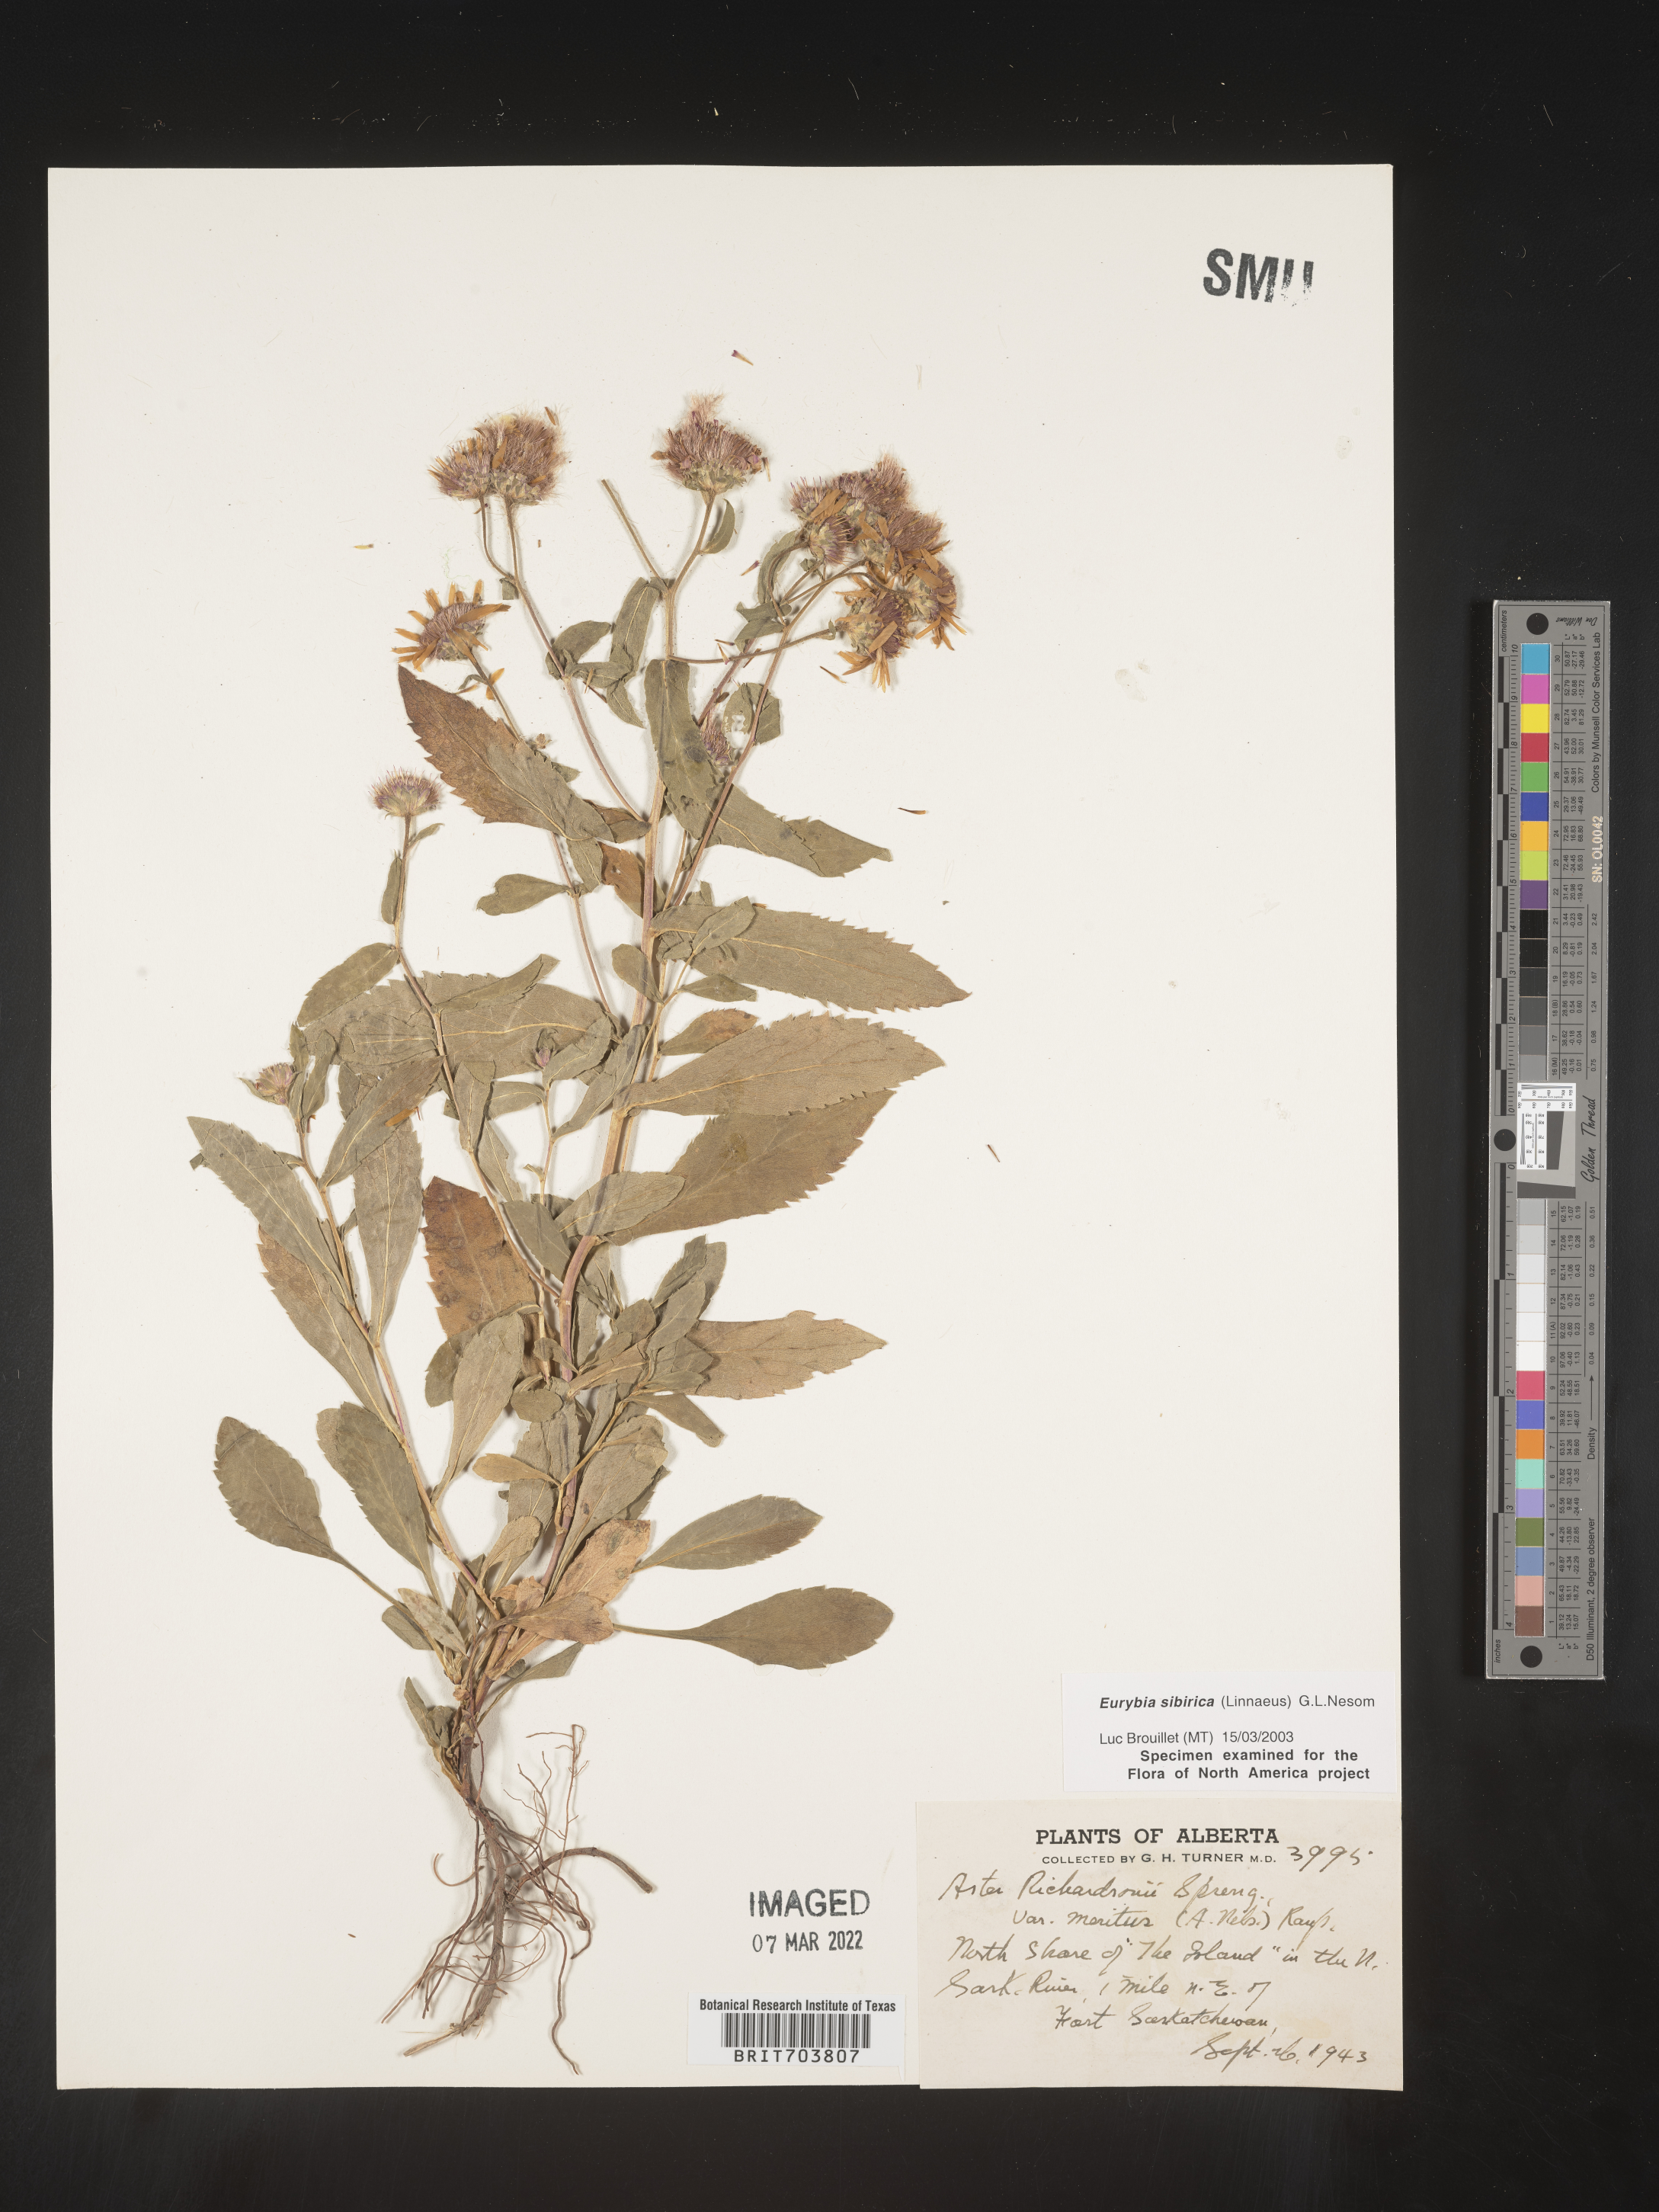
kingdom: Plantae
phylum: Tracheophyta
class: Magnoliopsida
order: Asterales
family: Asteraceae
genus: Eurybia
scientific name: Eurybia sibirica
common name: Arctic aster
